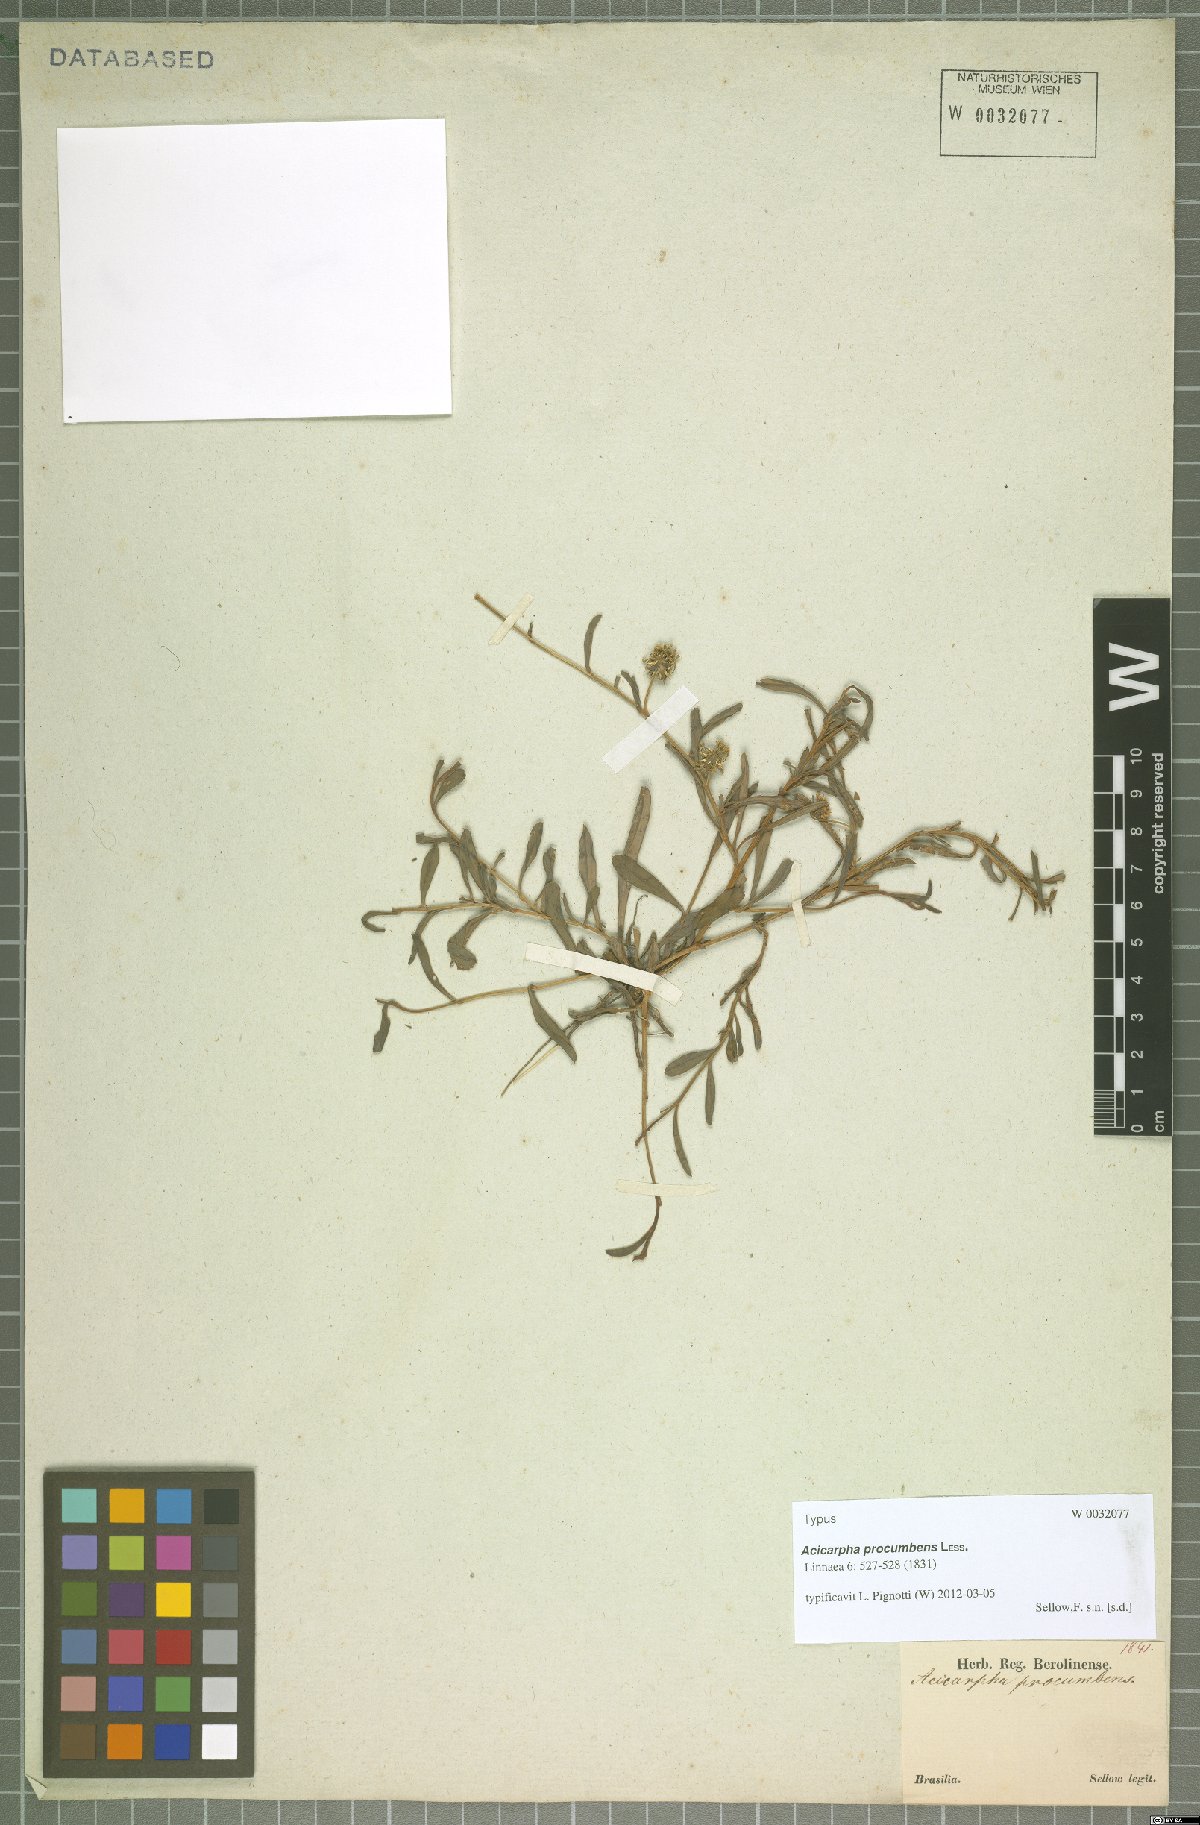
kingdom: Plantae
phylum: Tracheophyta
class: Magnoliopsida
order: Asterales
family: Calyceraceae
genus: Acicarpha
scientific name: Acicarpha procumbens
